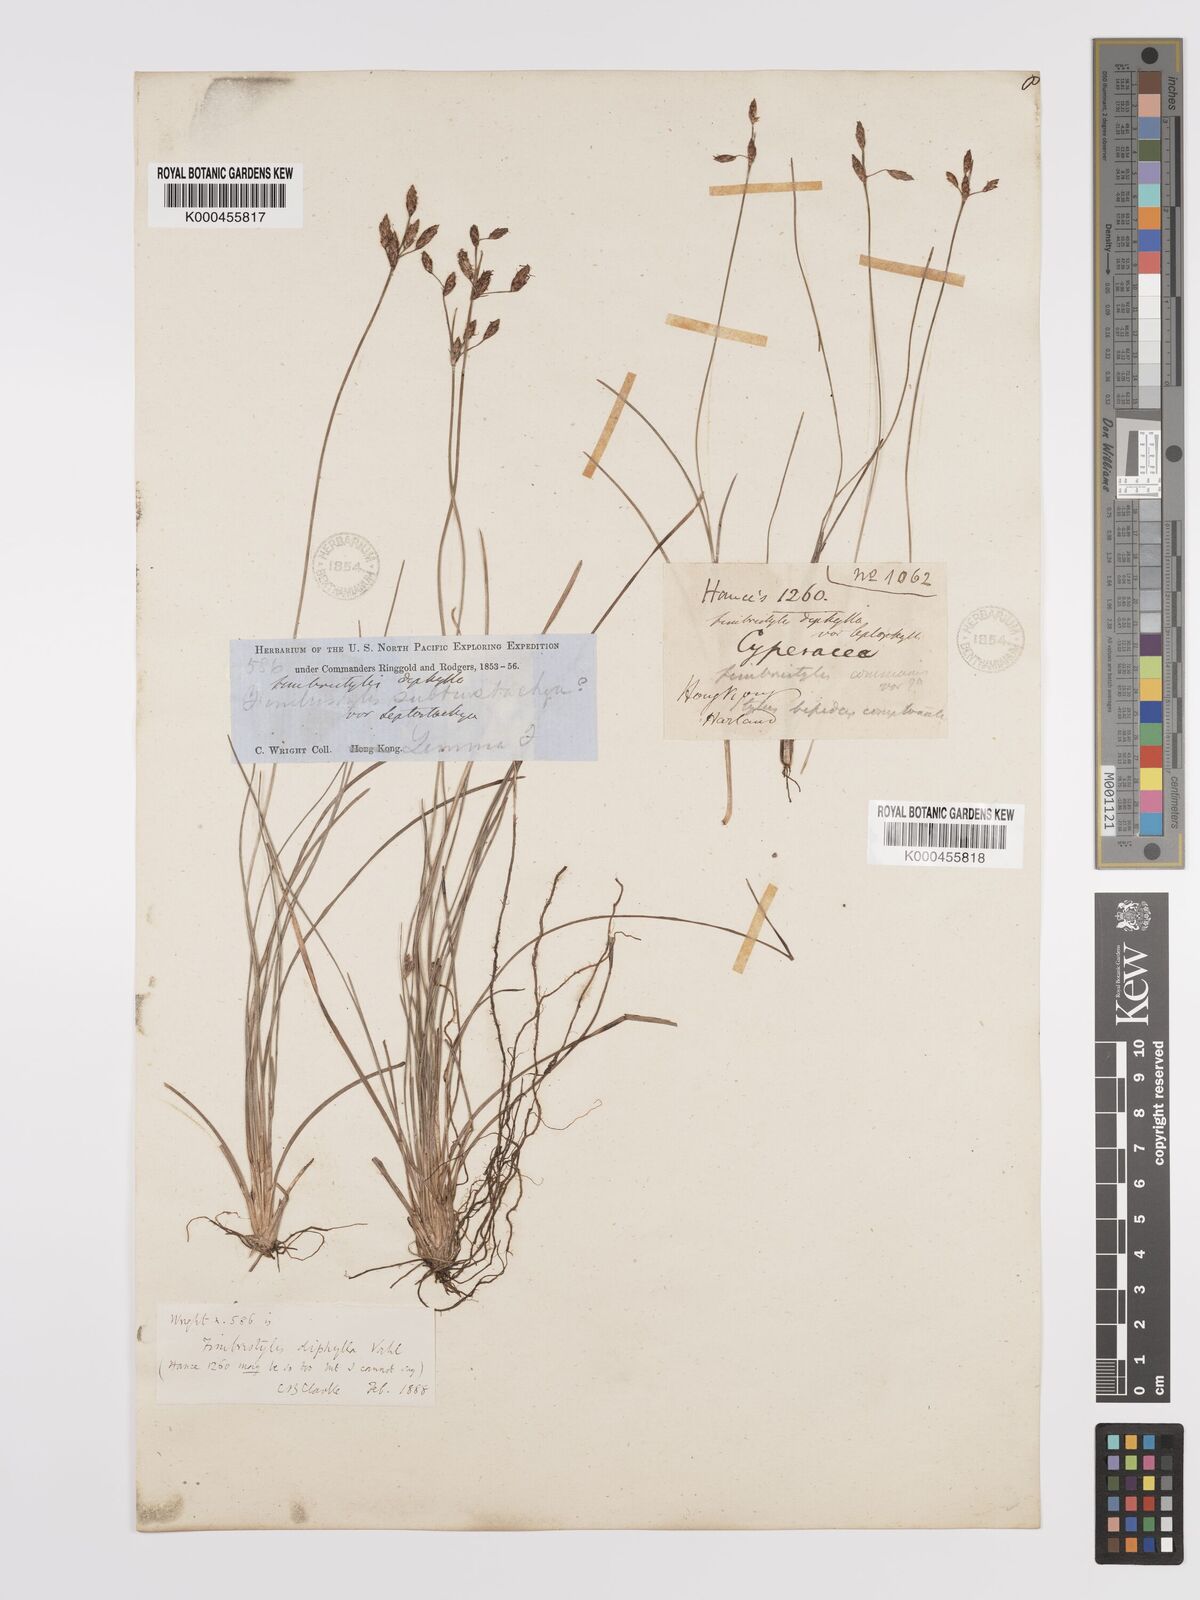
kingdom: Plantae
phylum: Tracheophyta
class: Liliopsida
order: Poales
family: Cyperaceae
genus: Fimbristylis
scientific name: Fimbristylis dichotoma
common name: Forked fimbry
